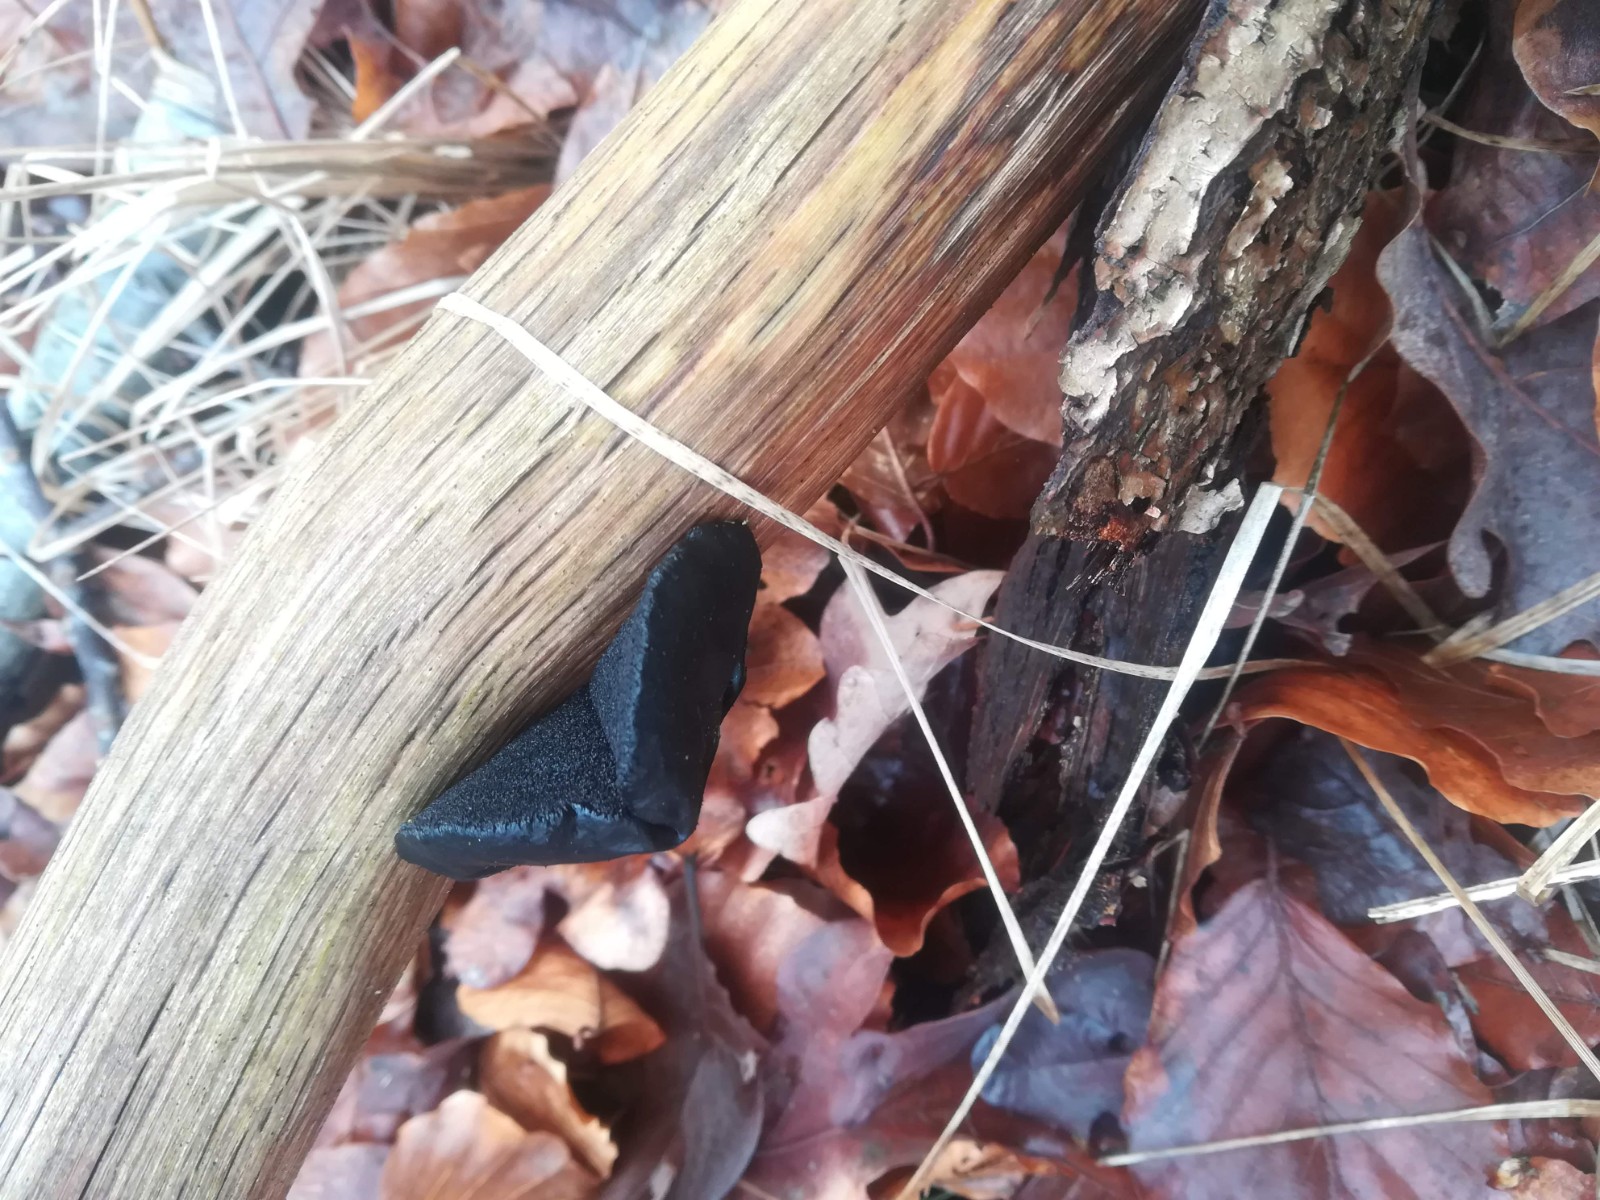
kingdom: Fungi
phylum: Basidiomycota
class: Agaricomycetes
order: Auriculariales
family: Auriculariaceae
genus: Exidia
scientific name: Exidia glandulosa
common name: ege-bævretop
